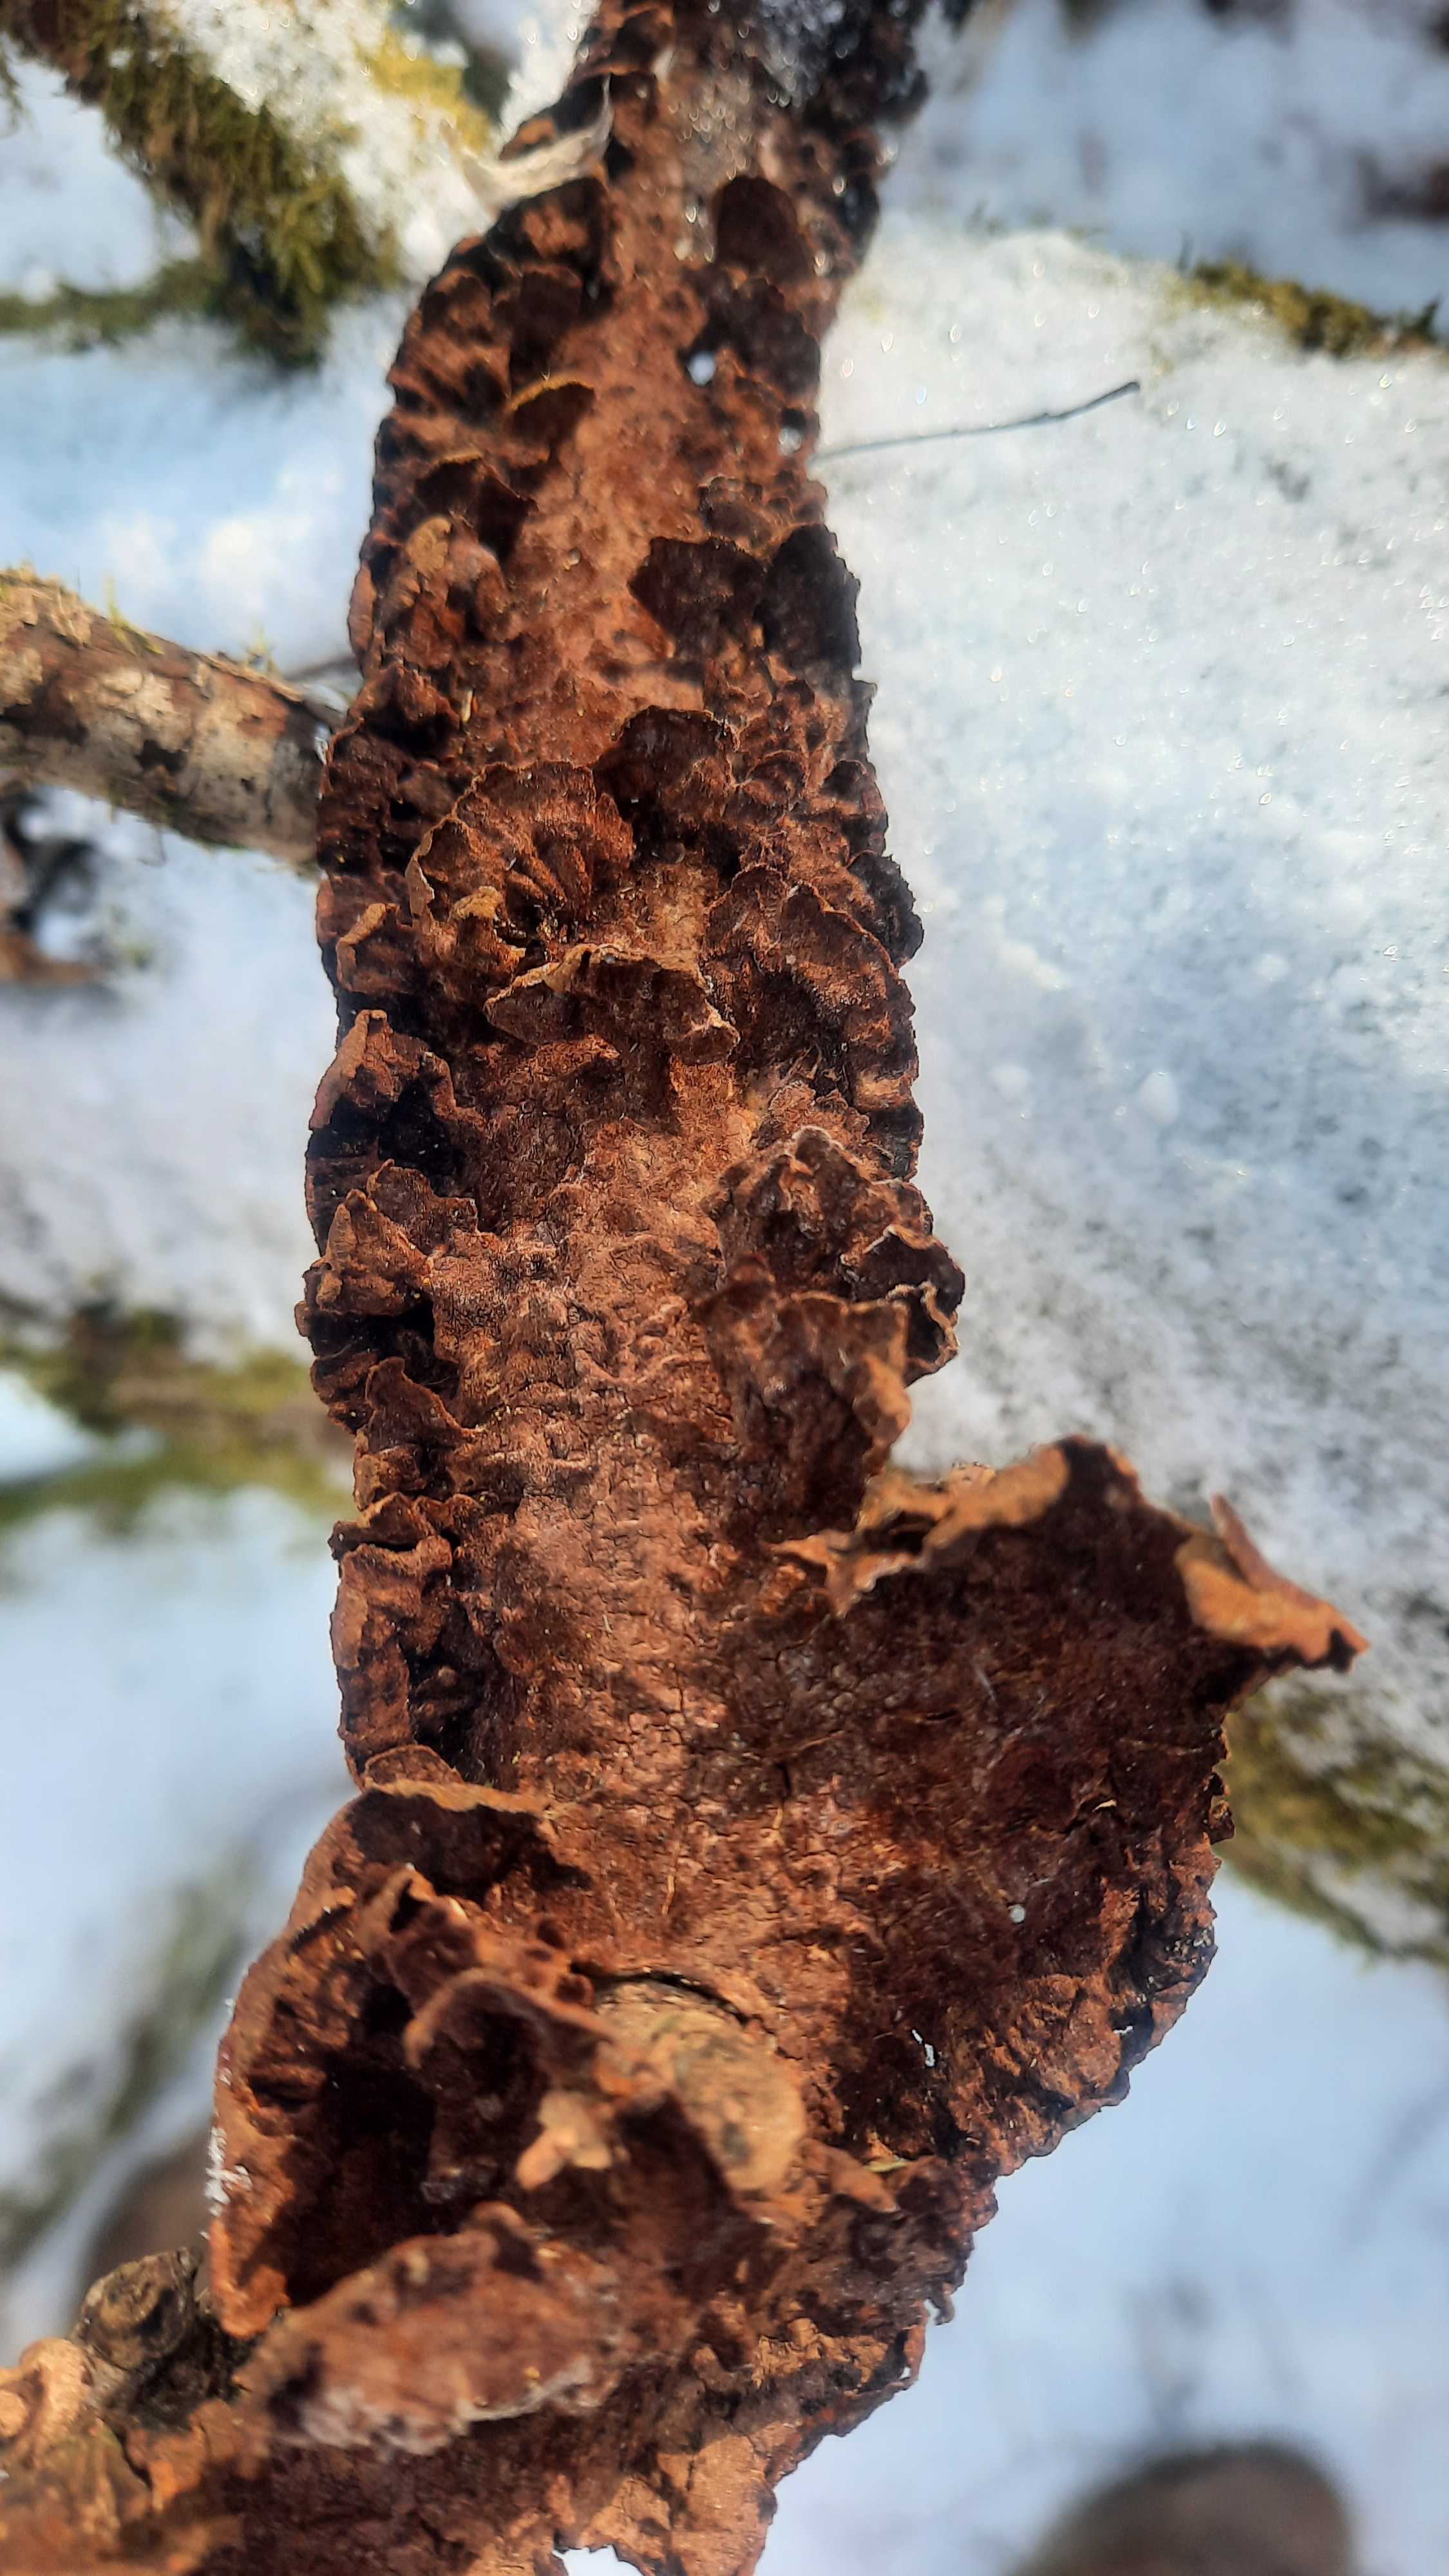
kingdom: Fungi
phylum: Basidiomycota
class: Agaricomycetes
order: Hymenochaetales
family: Hymenochaetaceae
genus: Hydnoporia
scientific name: Hydnoporia tabacina
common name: tobaksbrun ruslædersvamp
